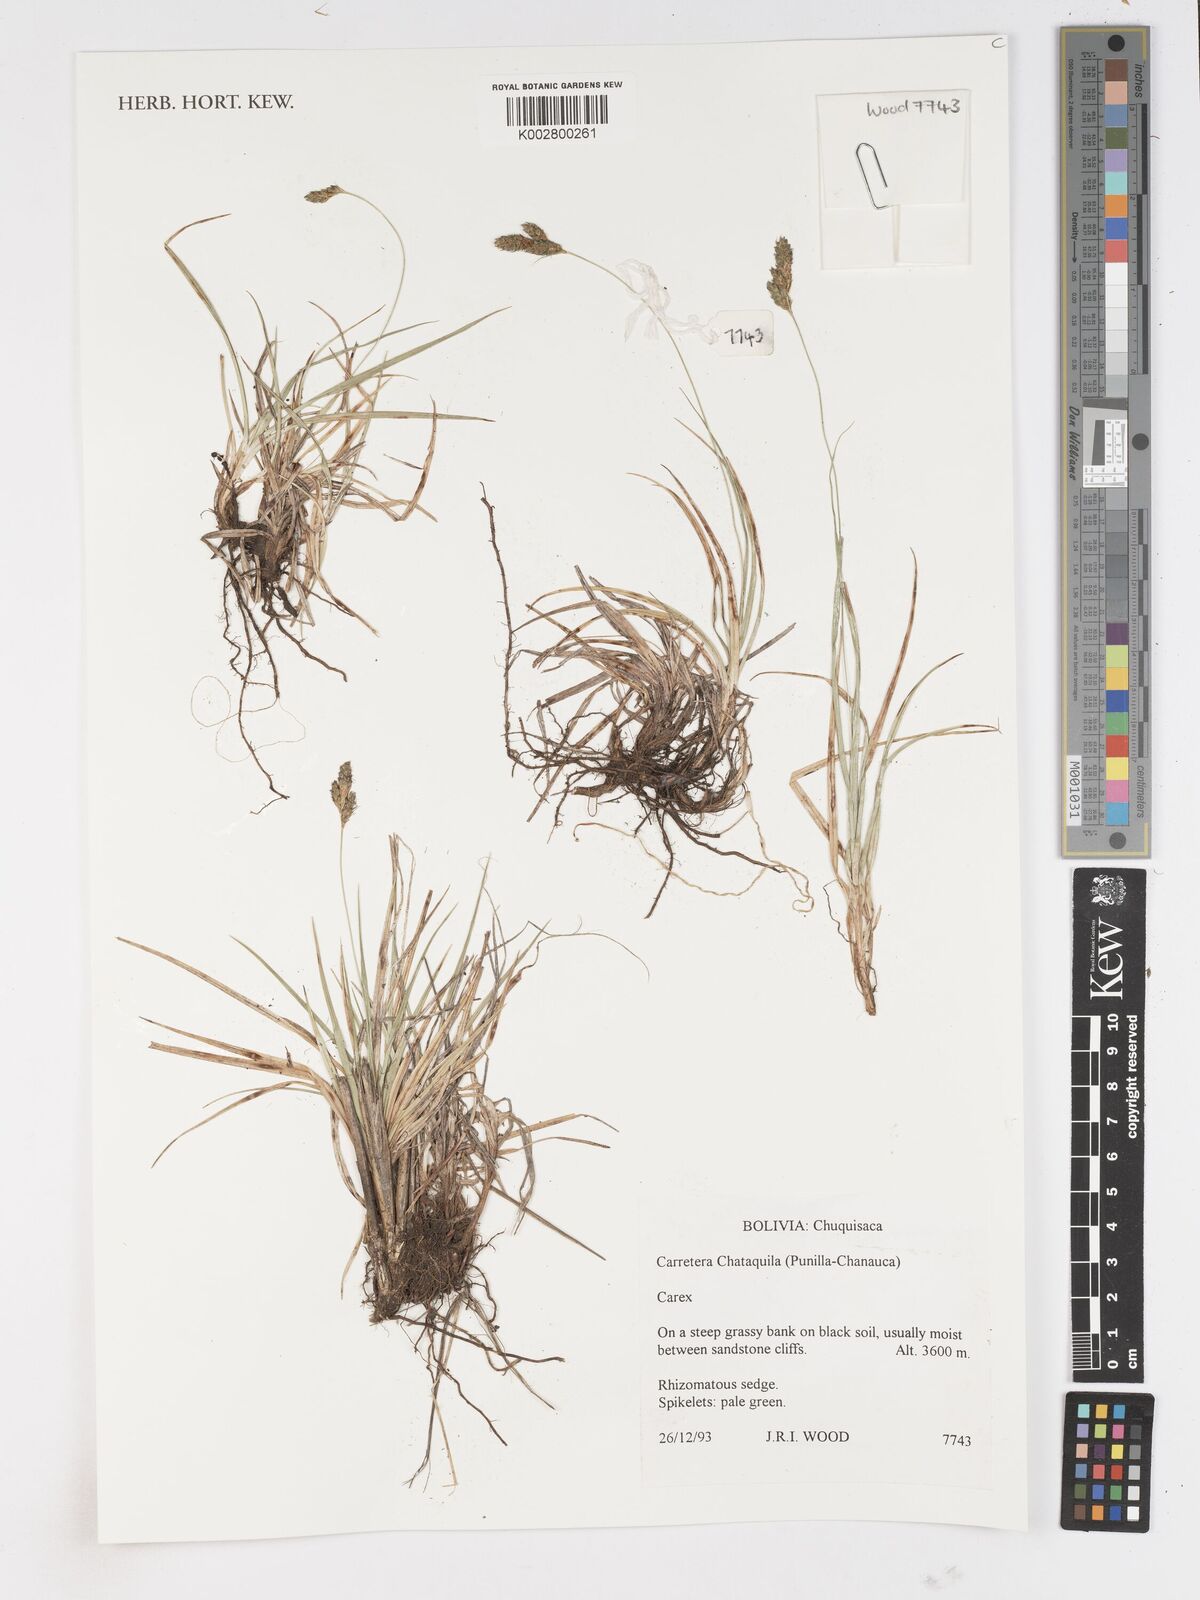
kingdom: Plantae
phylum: Tracheophyta
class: Liliopsida
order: Poales
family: Cyperaceae
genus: Carex
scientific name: Carex
